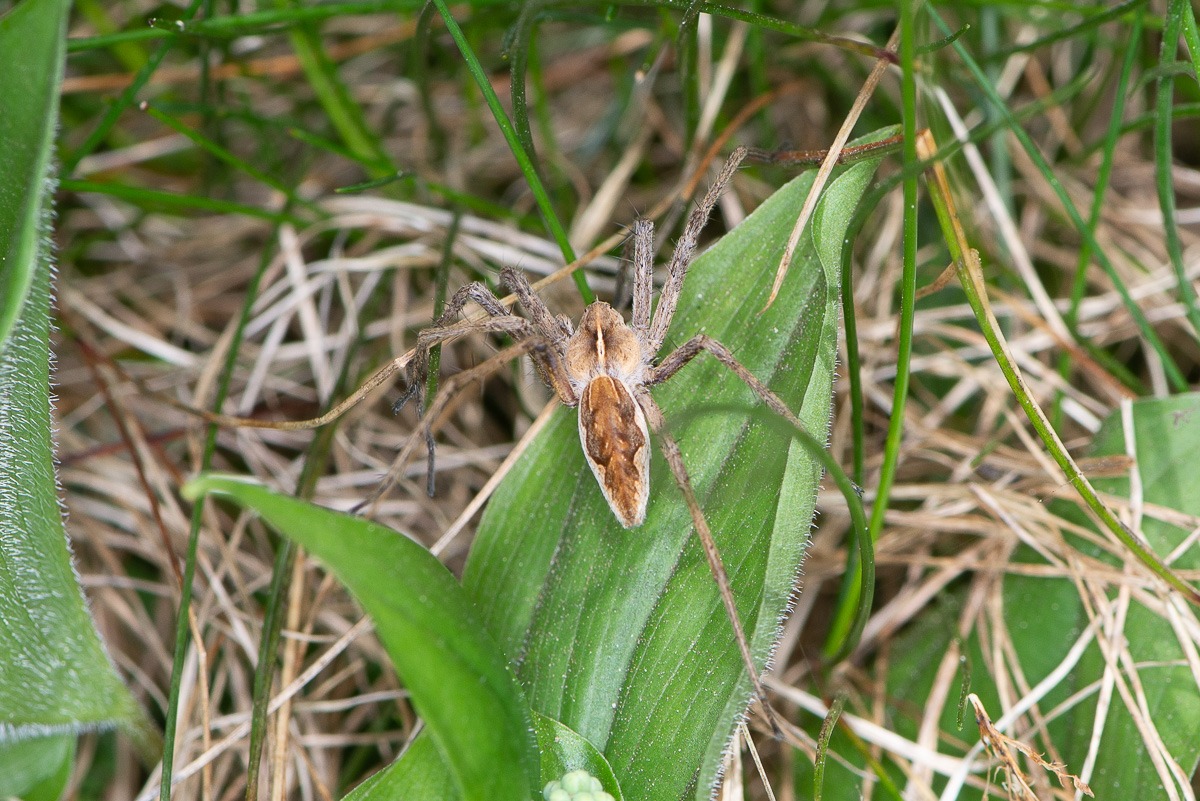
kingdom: Animalia
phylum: Arthropoda
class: Arachnida
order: Araneae
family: Pisauridae
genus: Pisaura
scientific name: Pisaura mirabilis
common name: Almindelig rovedderkop
